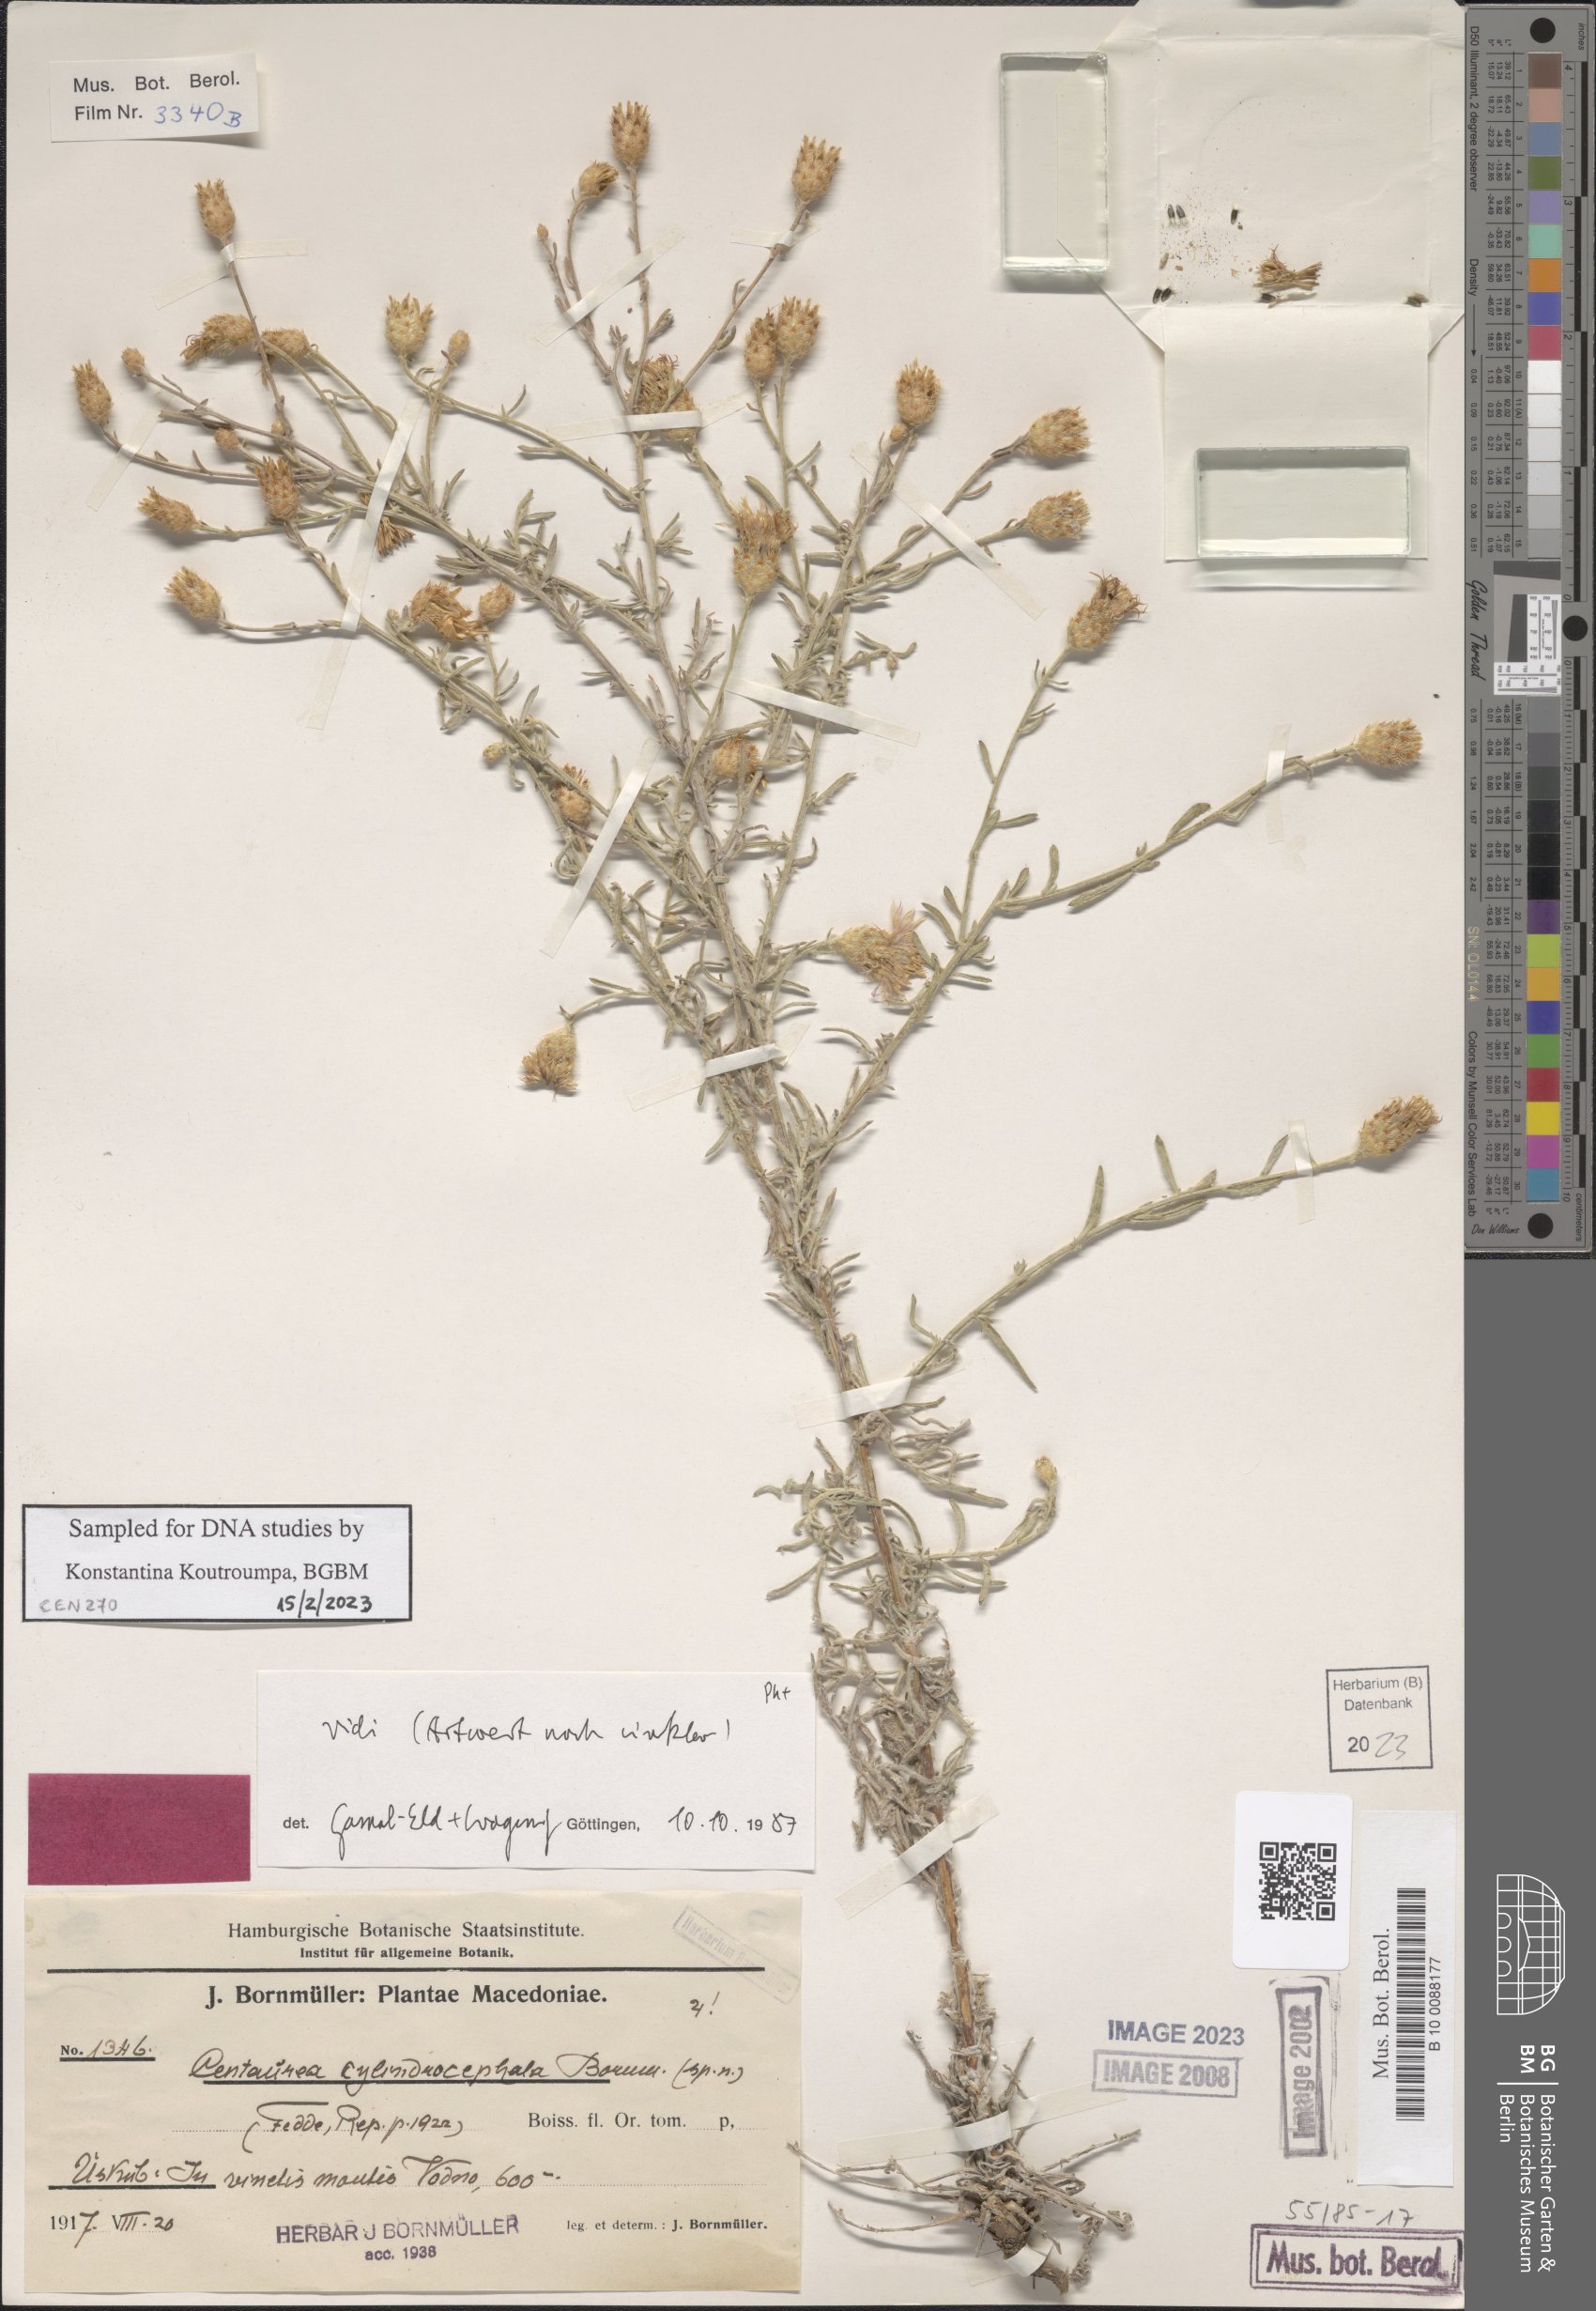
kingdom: Plantae
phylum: Tracheophyta
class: Magnoliopsida
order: Asterales
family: Asteraceae
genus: Centaurea
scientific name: Centaurea cylindrocephala
